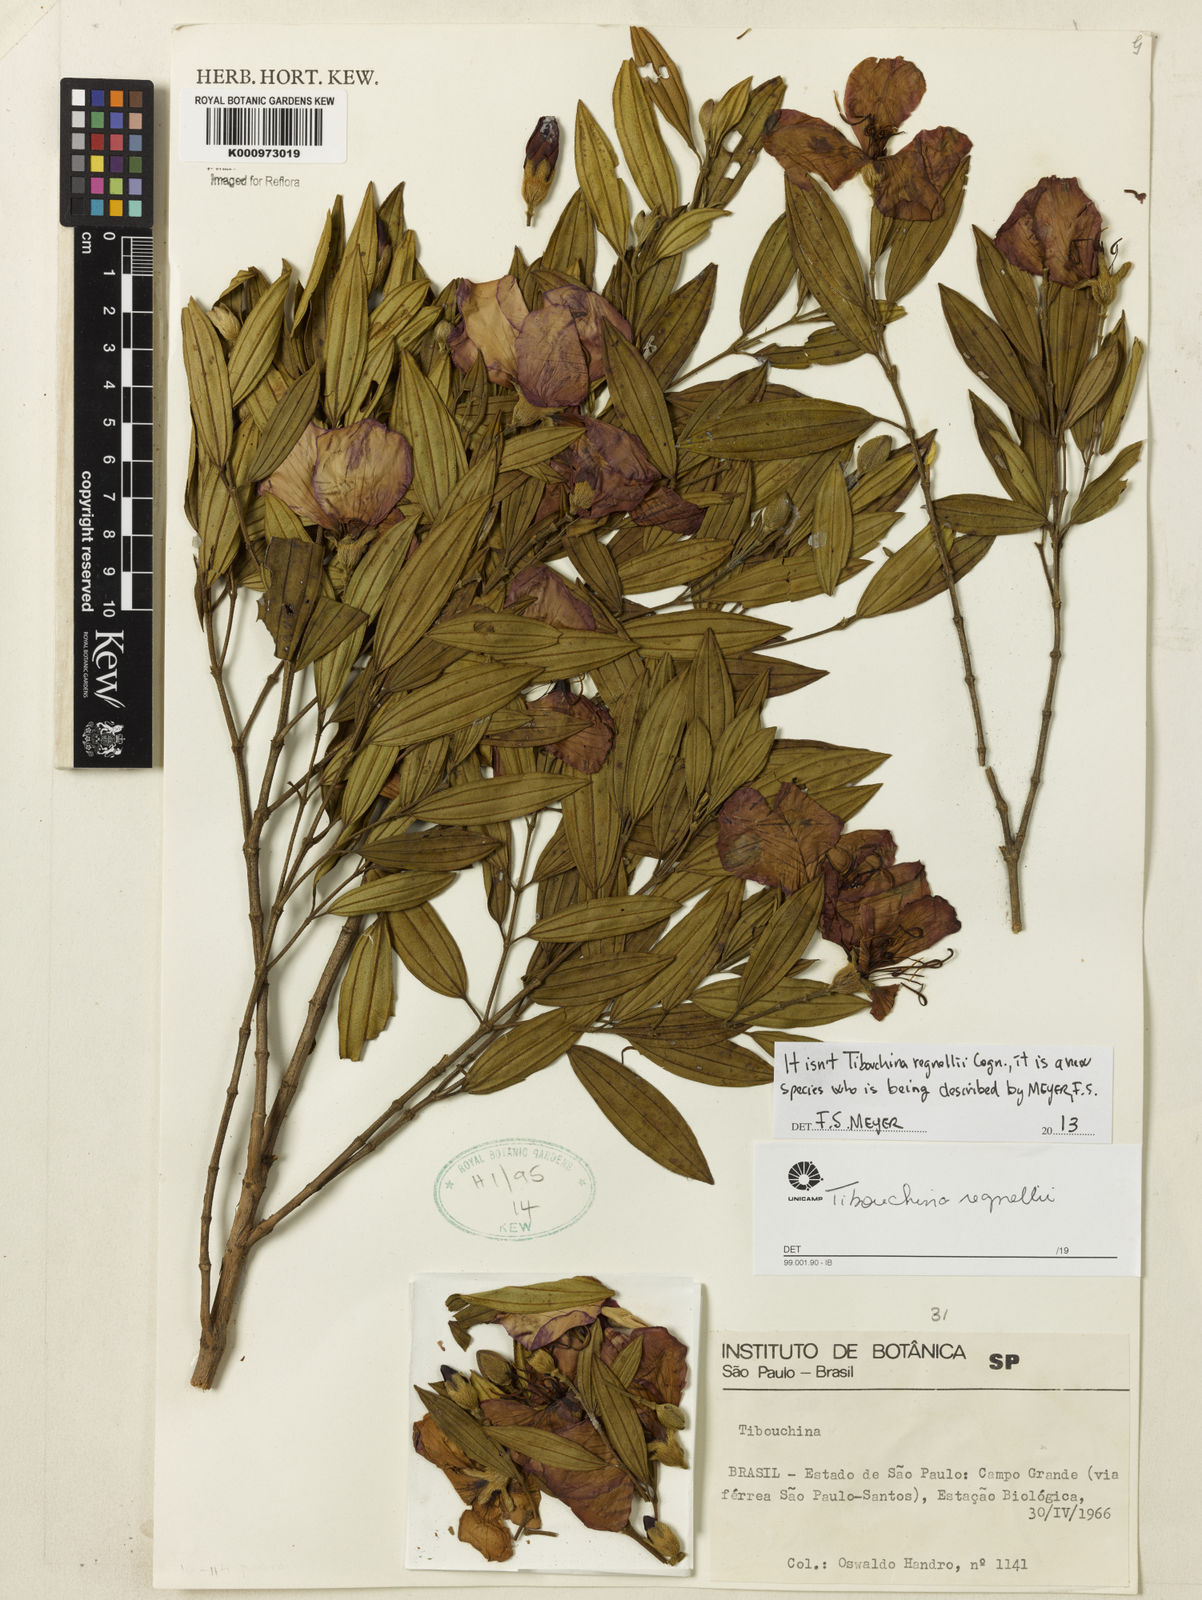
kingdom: Plantae
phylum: Tracheophyta
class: Magnoliopsida
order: Myrtales
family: Melastomataceae
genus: Tibouchina
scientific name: Tibouchina
